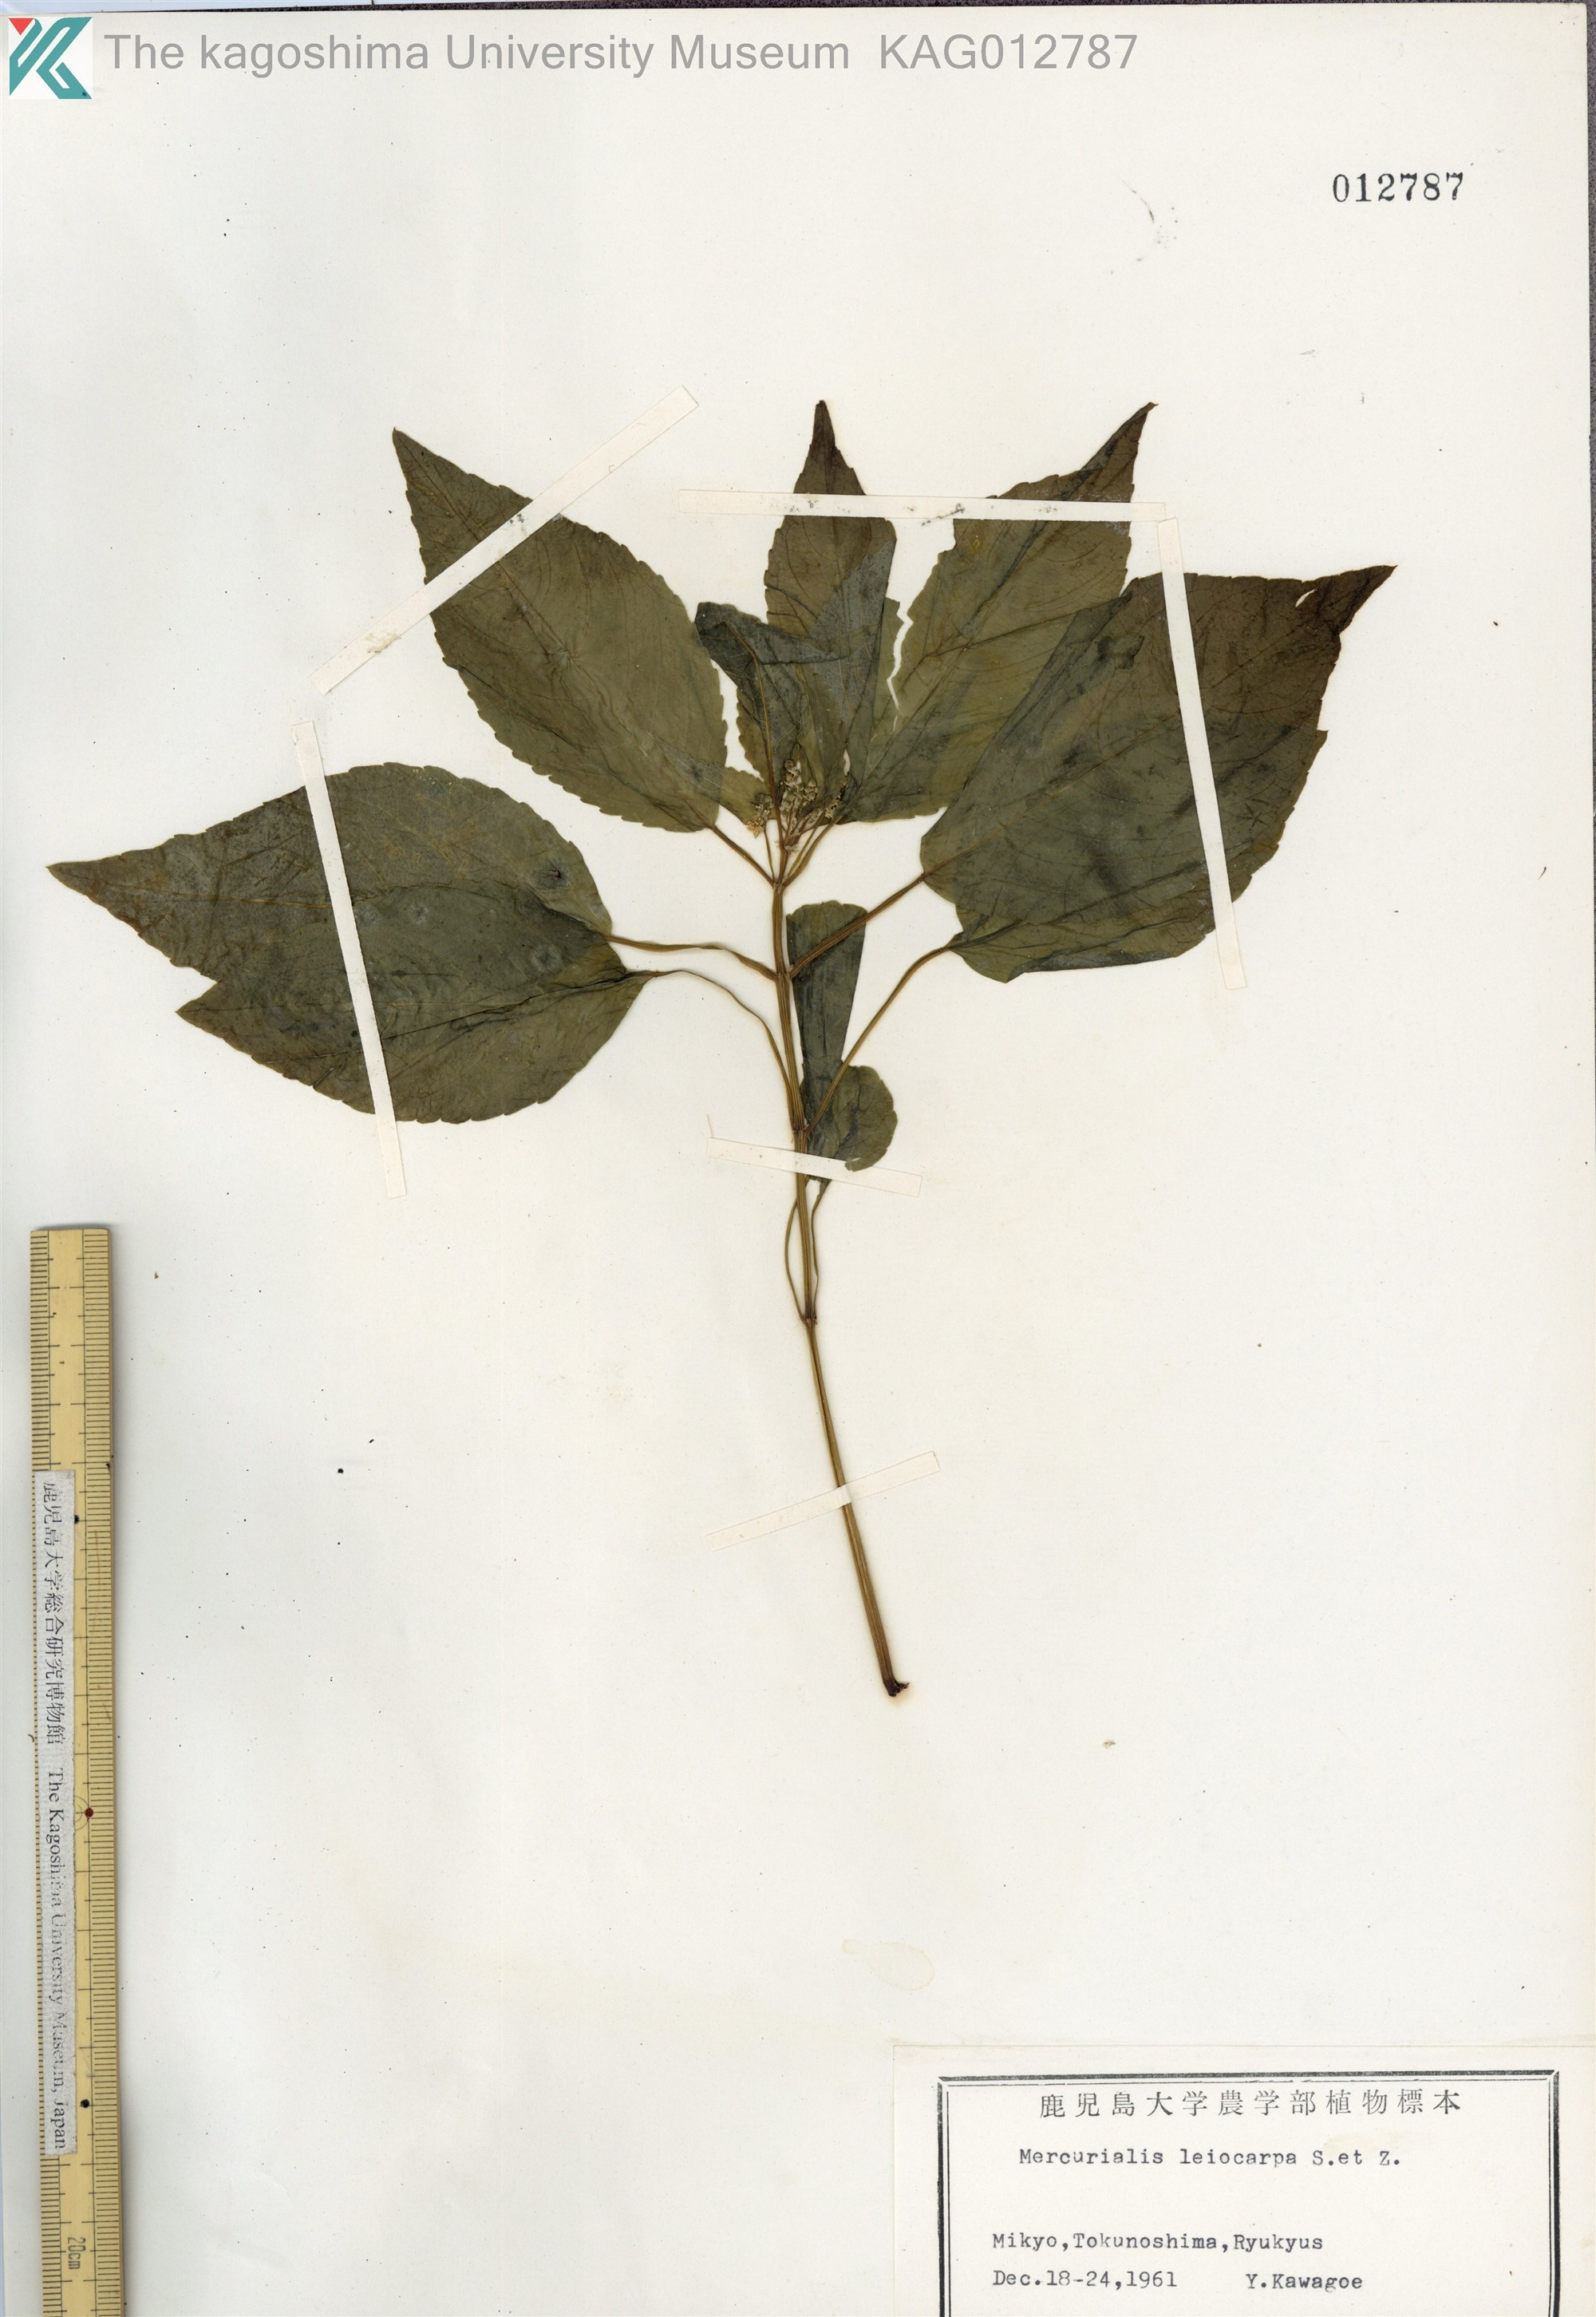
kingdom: Plantae
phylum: Tracheophyta
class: Magnoliopsida
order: Malpighiales
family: Euphorbiaceae
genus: Mercurialis
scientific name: Mercurialis leiocarpa
